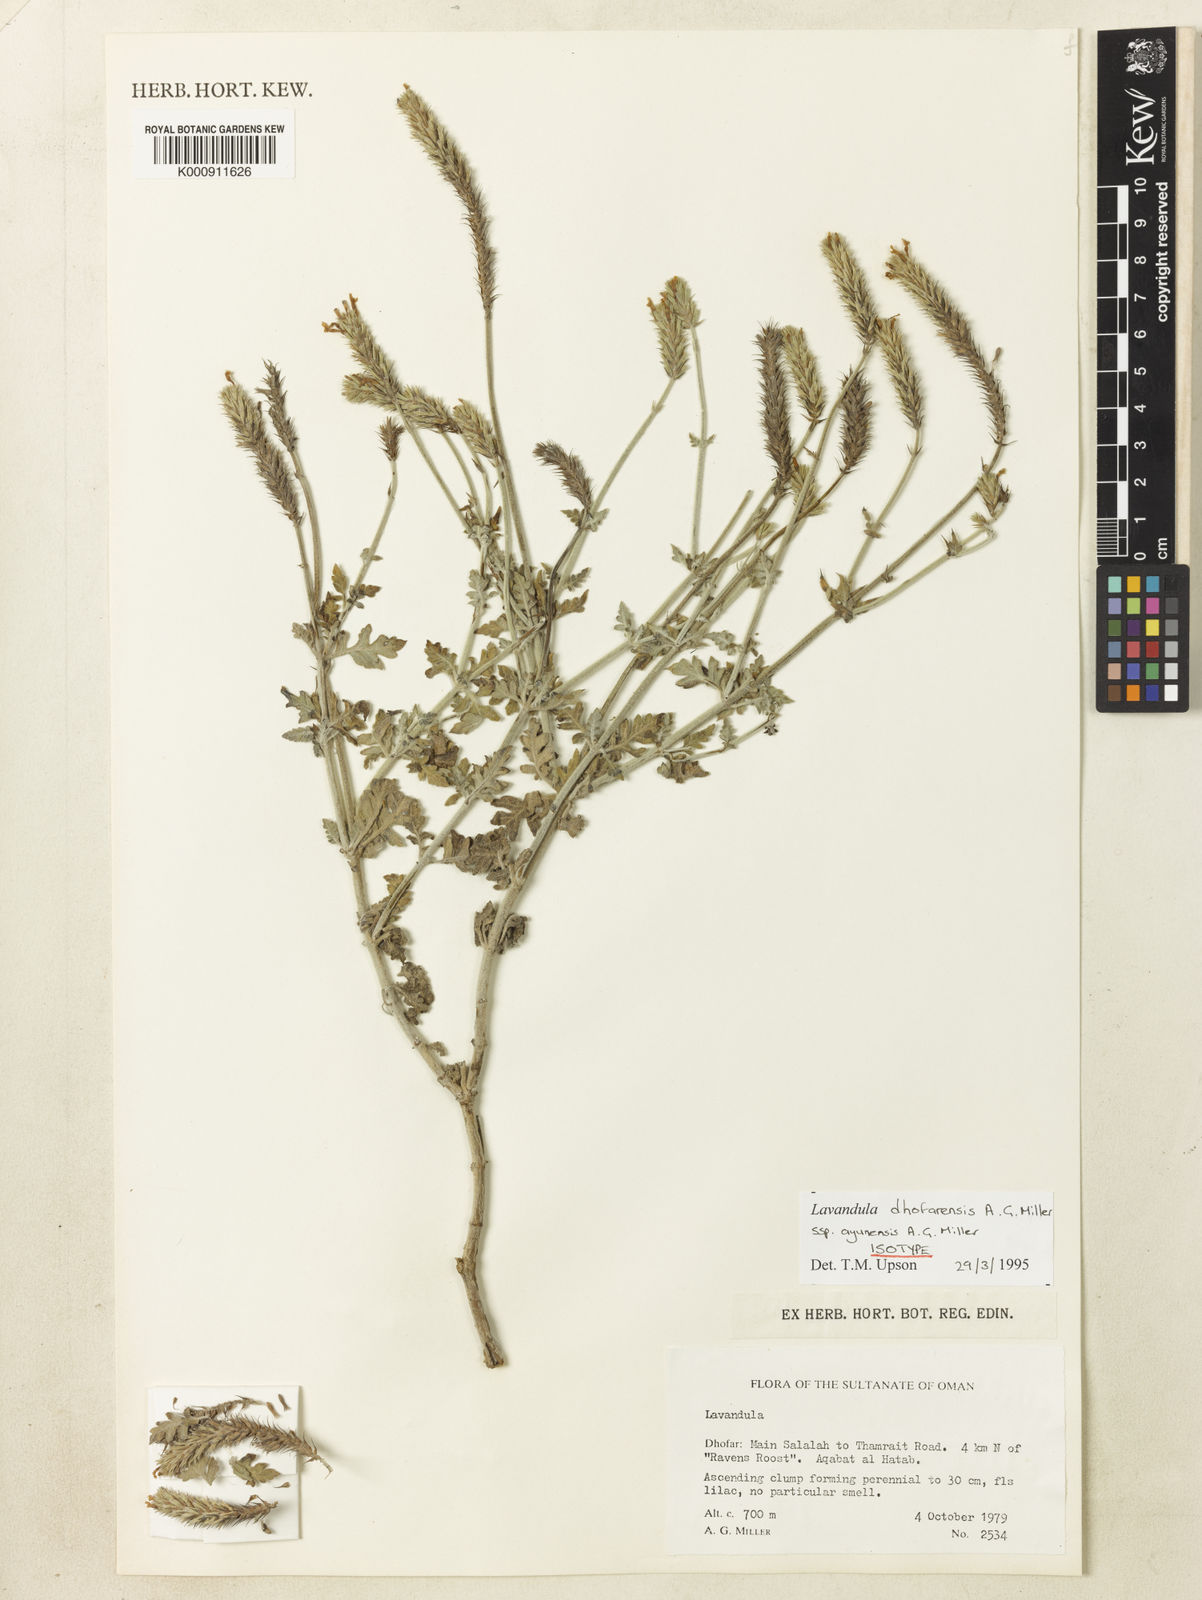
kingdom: Plantae
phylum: Tracheophyta
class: Magnoliopsida
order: Lamiales
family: Lamiaceae
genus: Lavandula
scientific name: Lavandula dhofarensis
